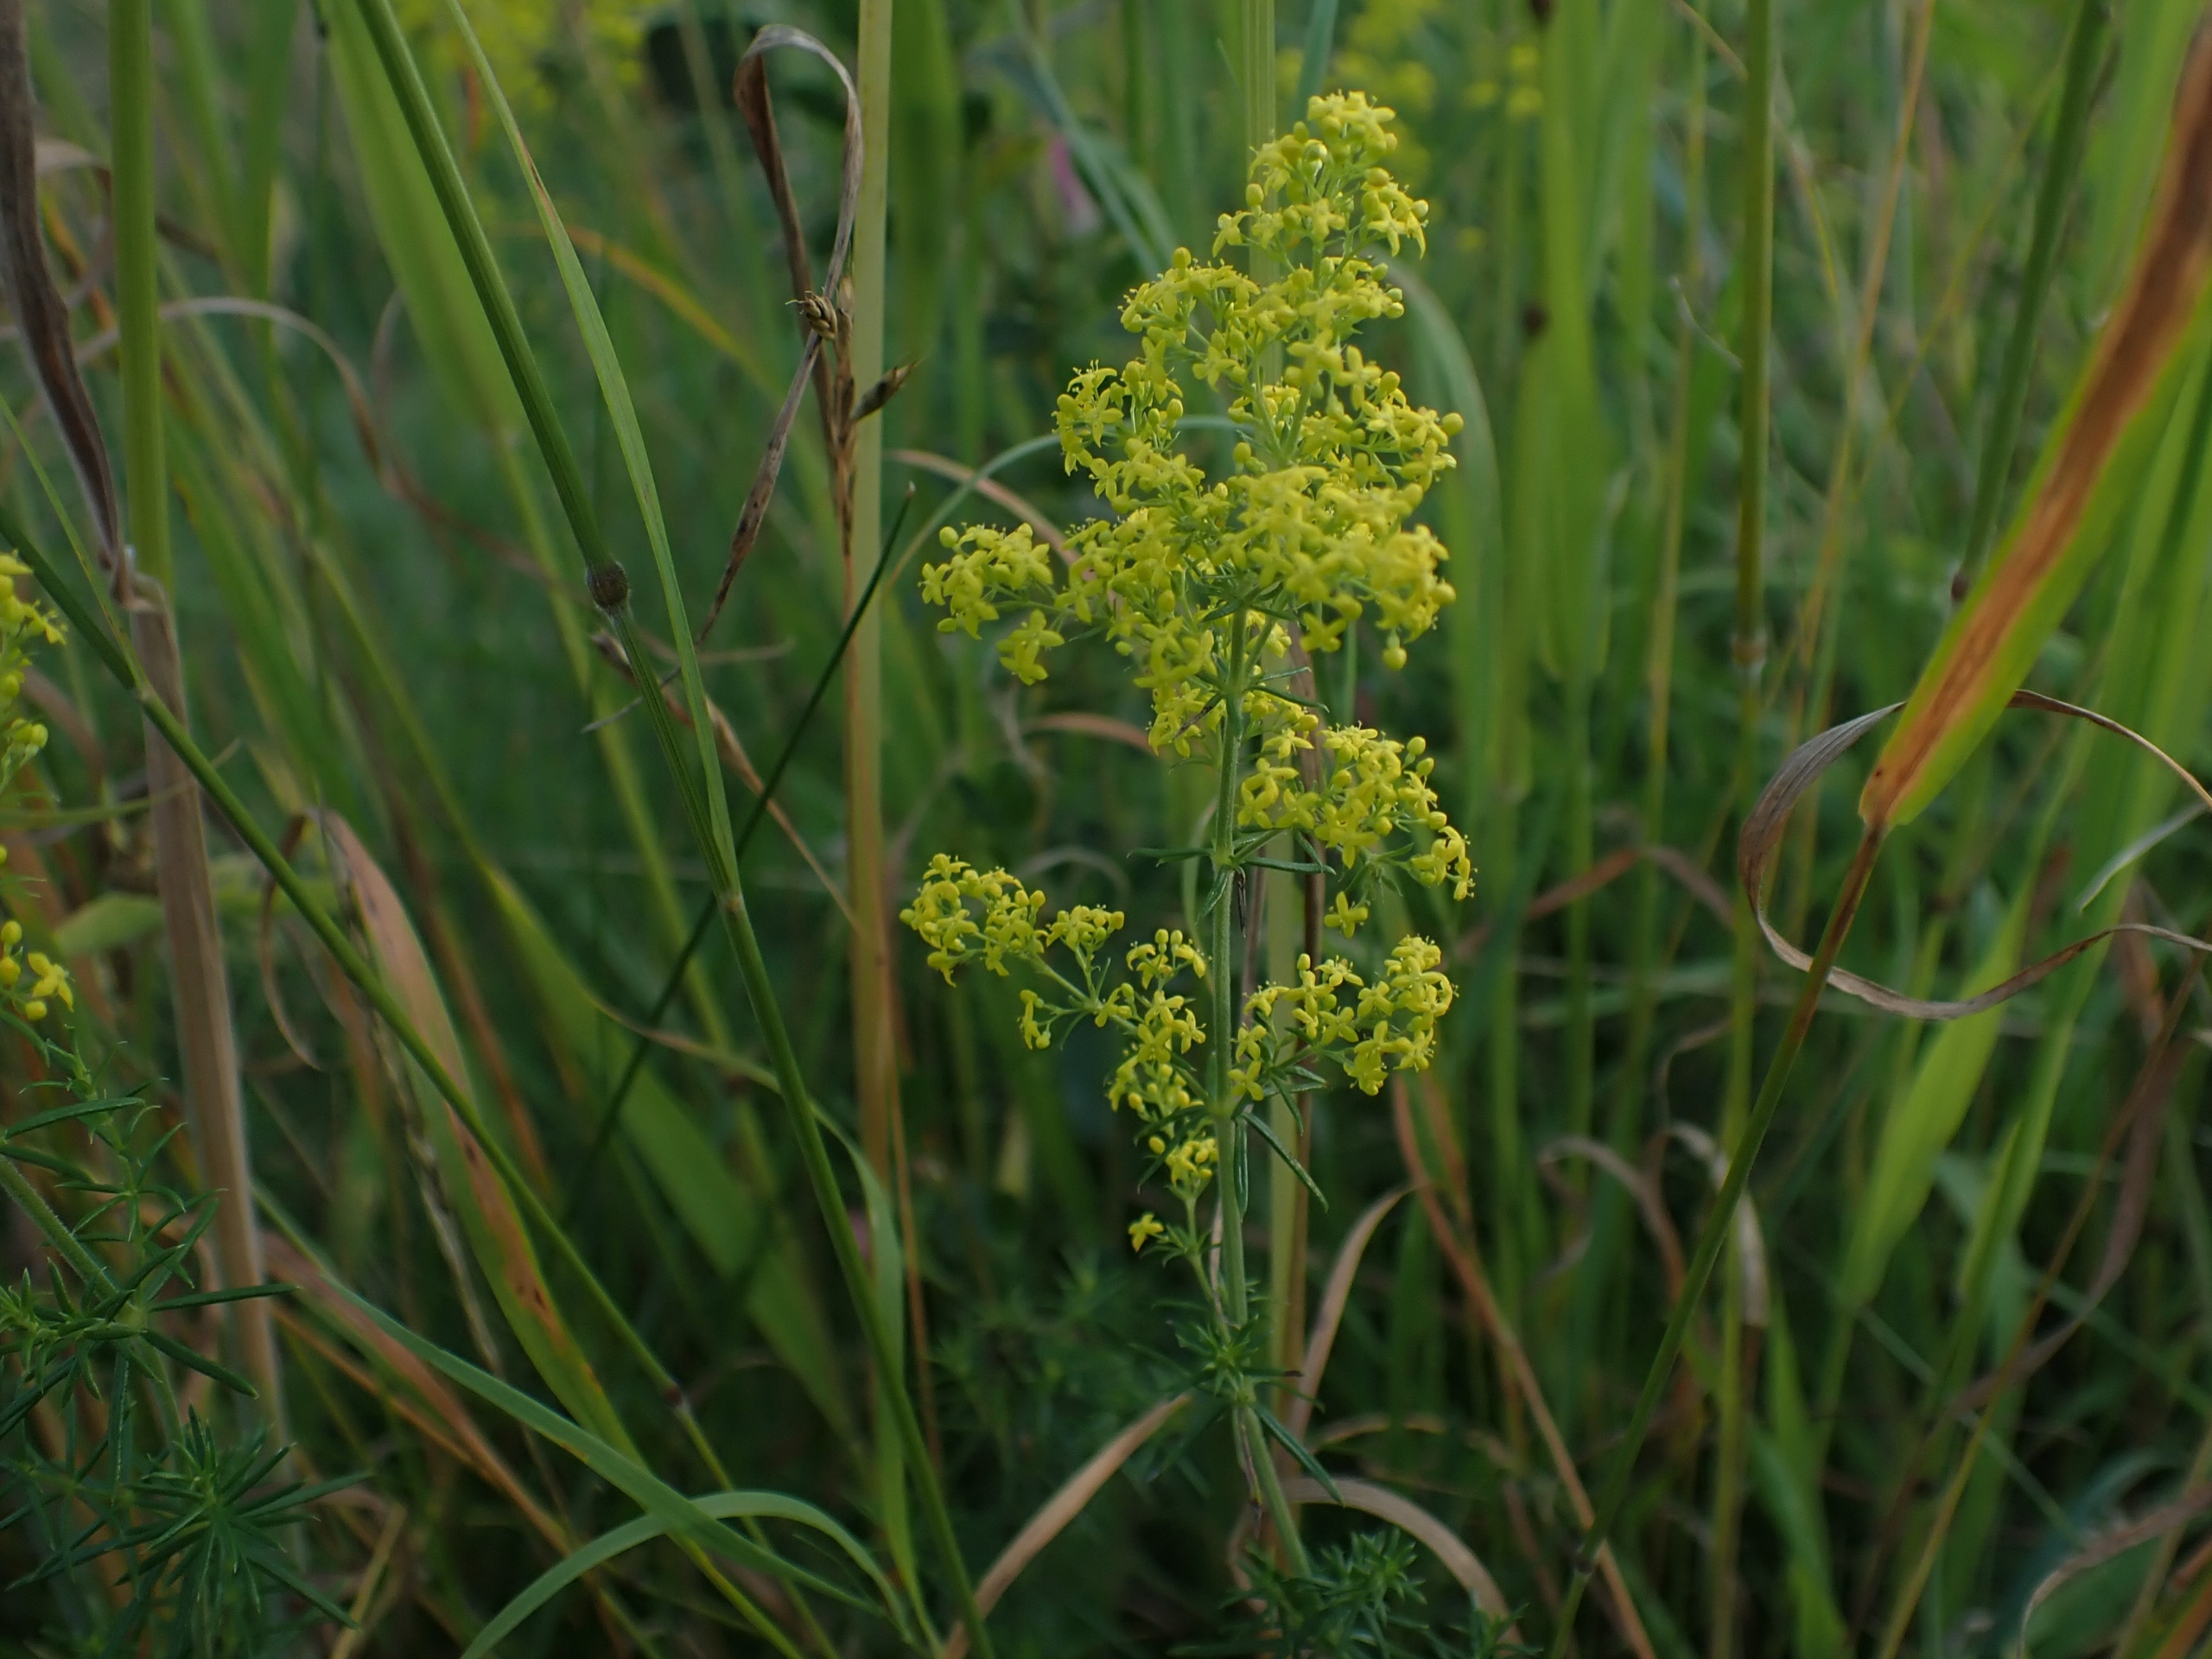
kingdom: Plantae
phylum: Tracheophyta
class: Magnoliopsida
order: Gentianales
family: Rubiaceae
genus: Galium
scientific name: Galium verum
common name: Gul snerre
